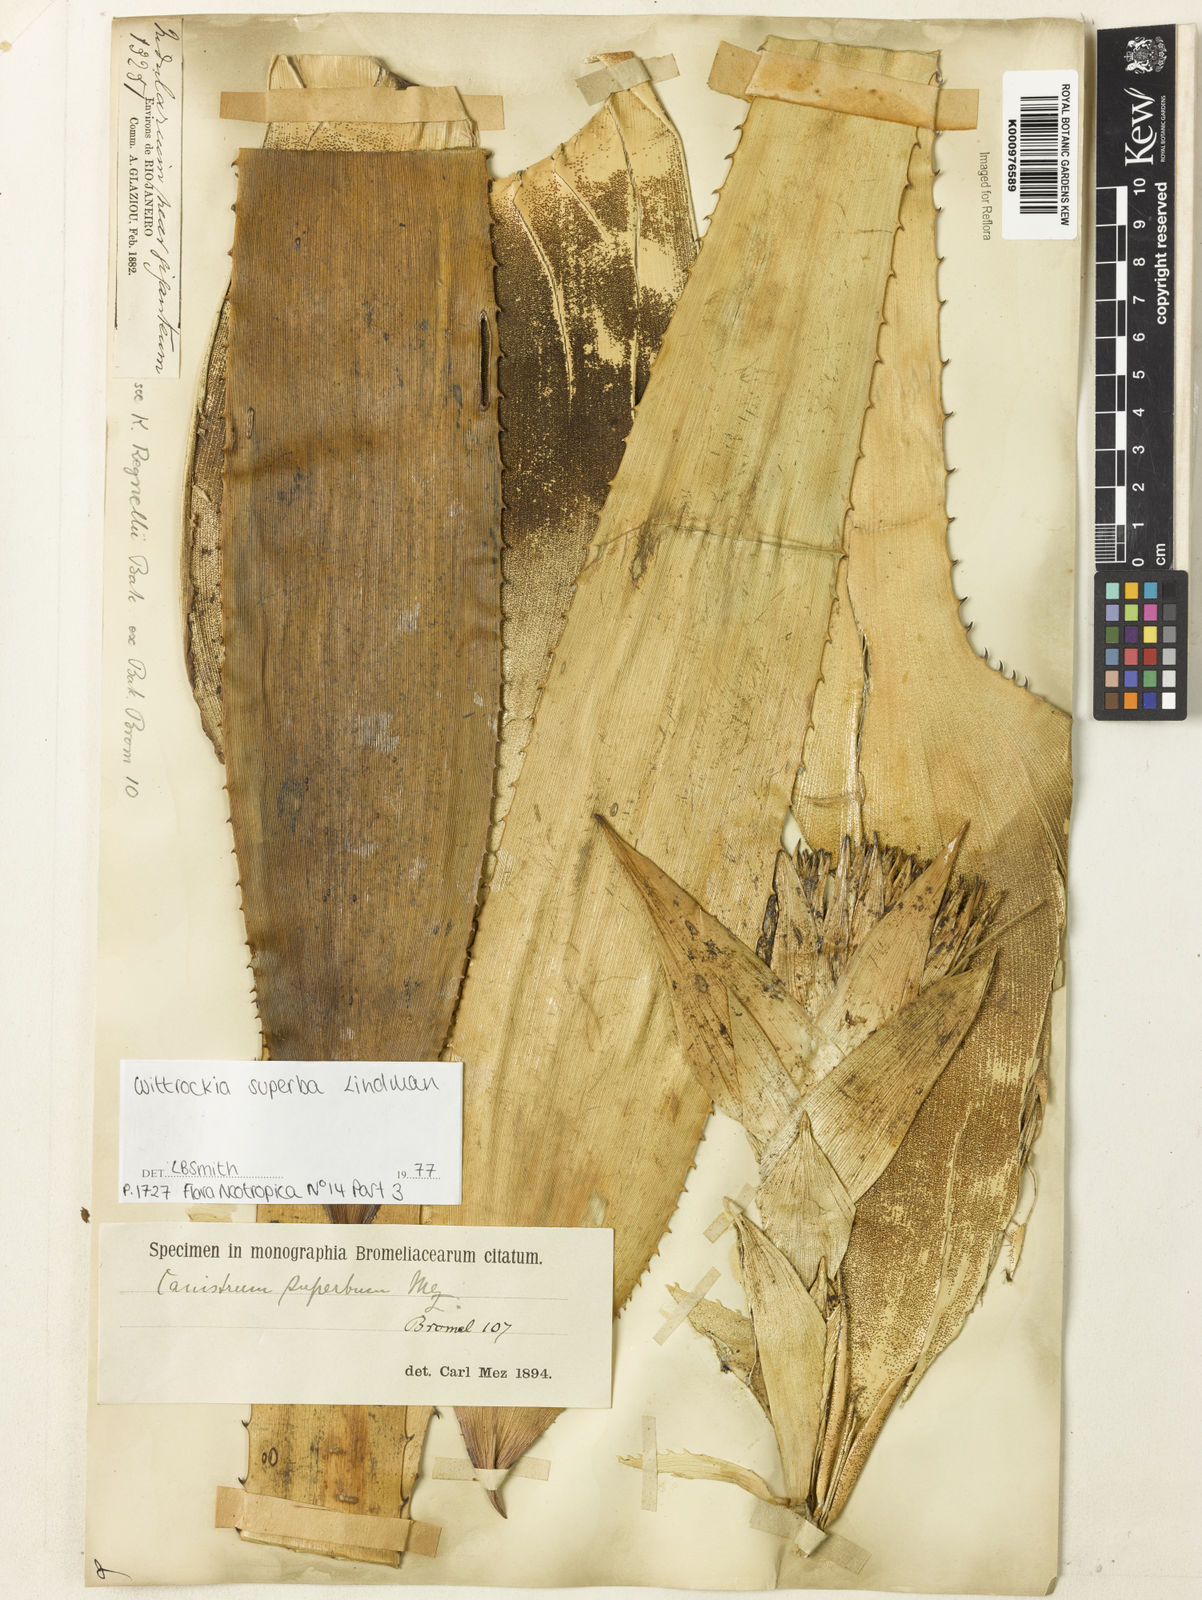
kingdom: Plantae
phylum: Tracheophyta
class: Liliopsida
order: Poales
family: Bromeliaceae
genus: Wittrockia
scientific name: Wittrockia superba
